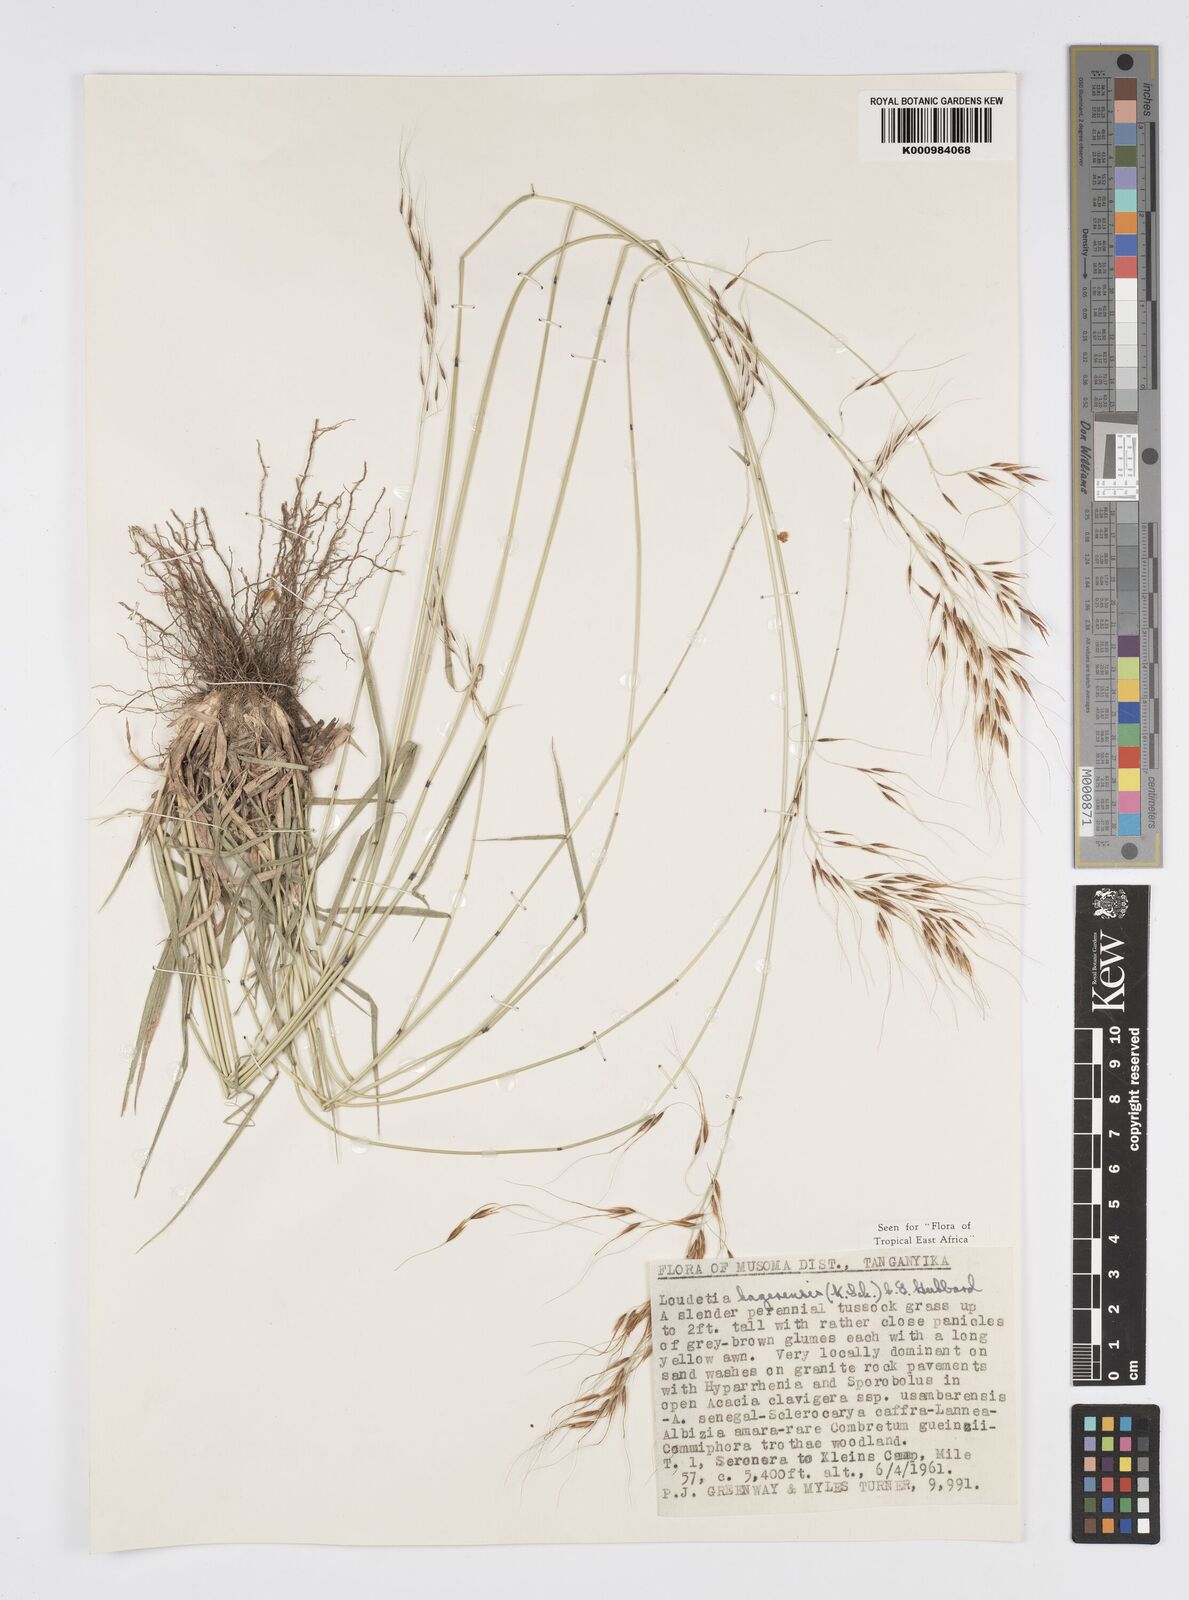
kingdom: Plantae
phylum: Tracheophyta
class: Liliopsida
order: Poales
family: Poaceae
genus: Loudetia
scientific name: Loudetia kagerensis
